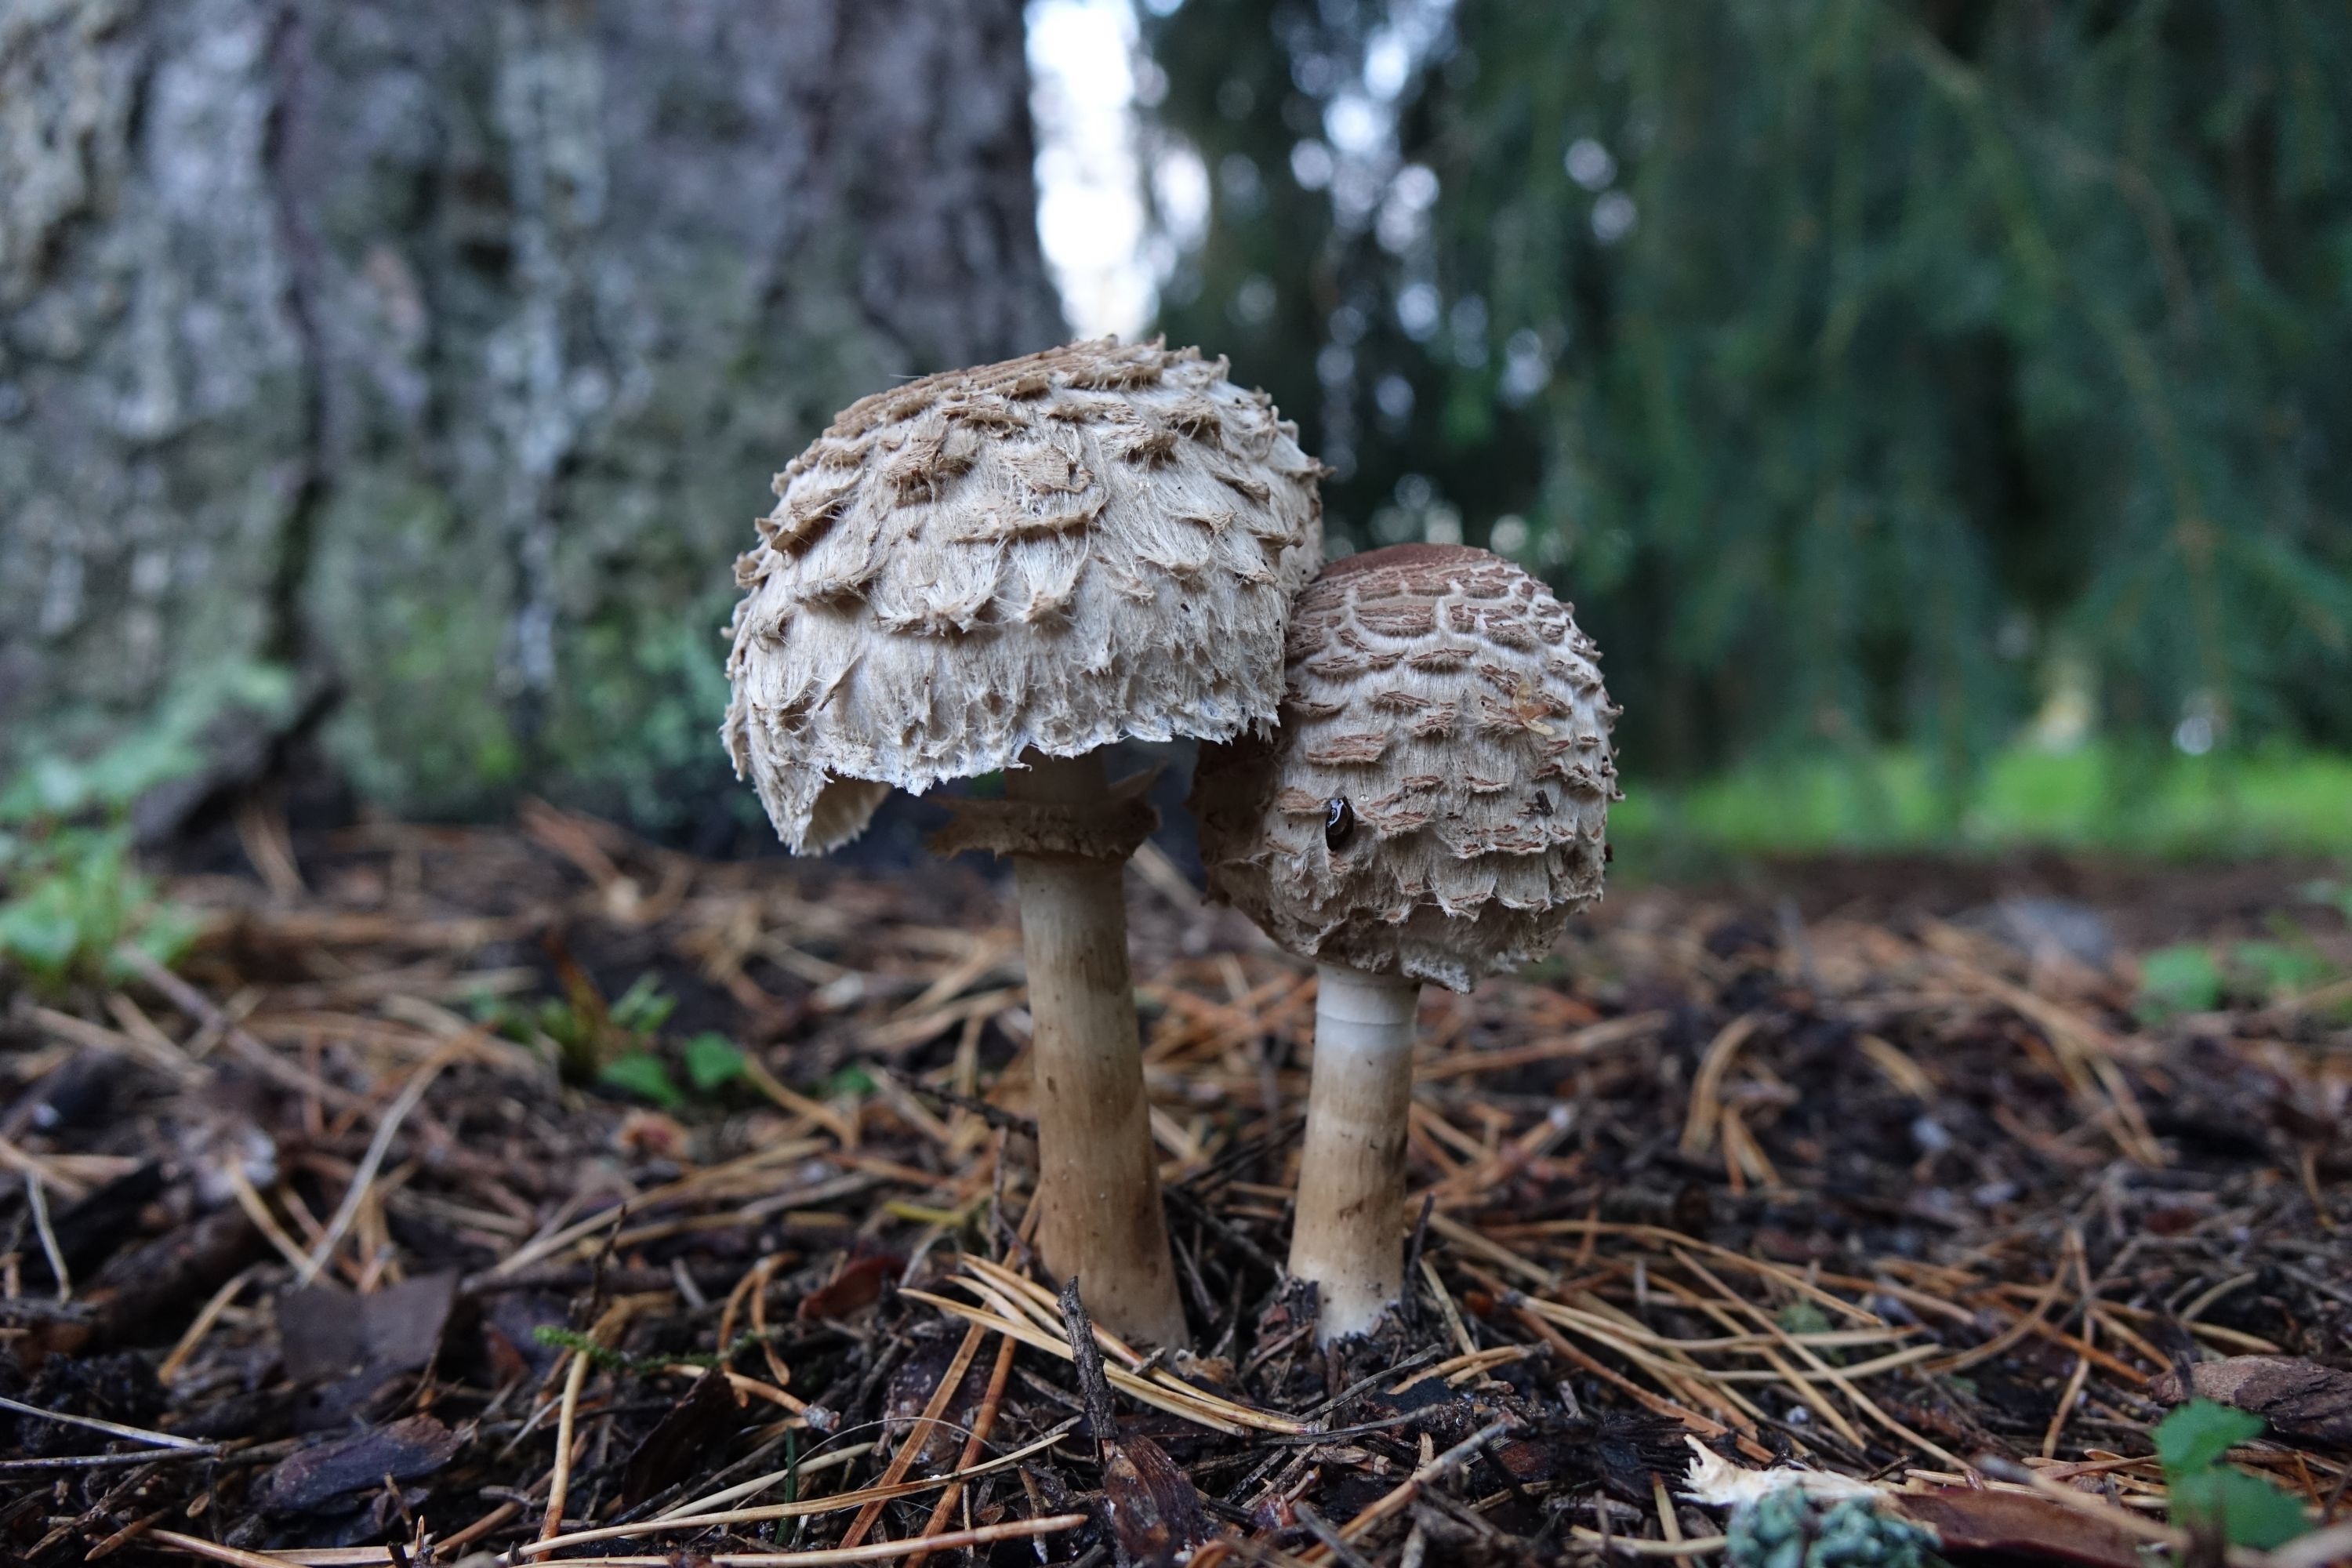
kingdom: Fungi
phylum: Basidiomycota
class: Agaricomycetes
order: Agaricales
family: Agaricaceae
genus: Chlorophyllum
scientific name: Chlorophyllum olivieri
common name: Conifer parasol
